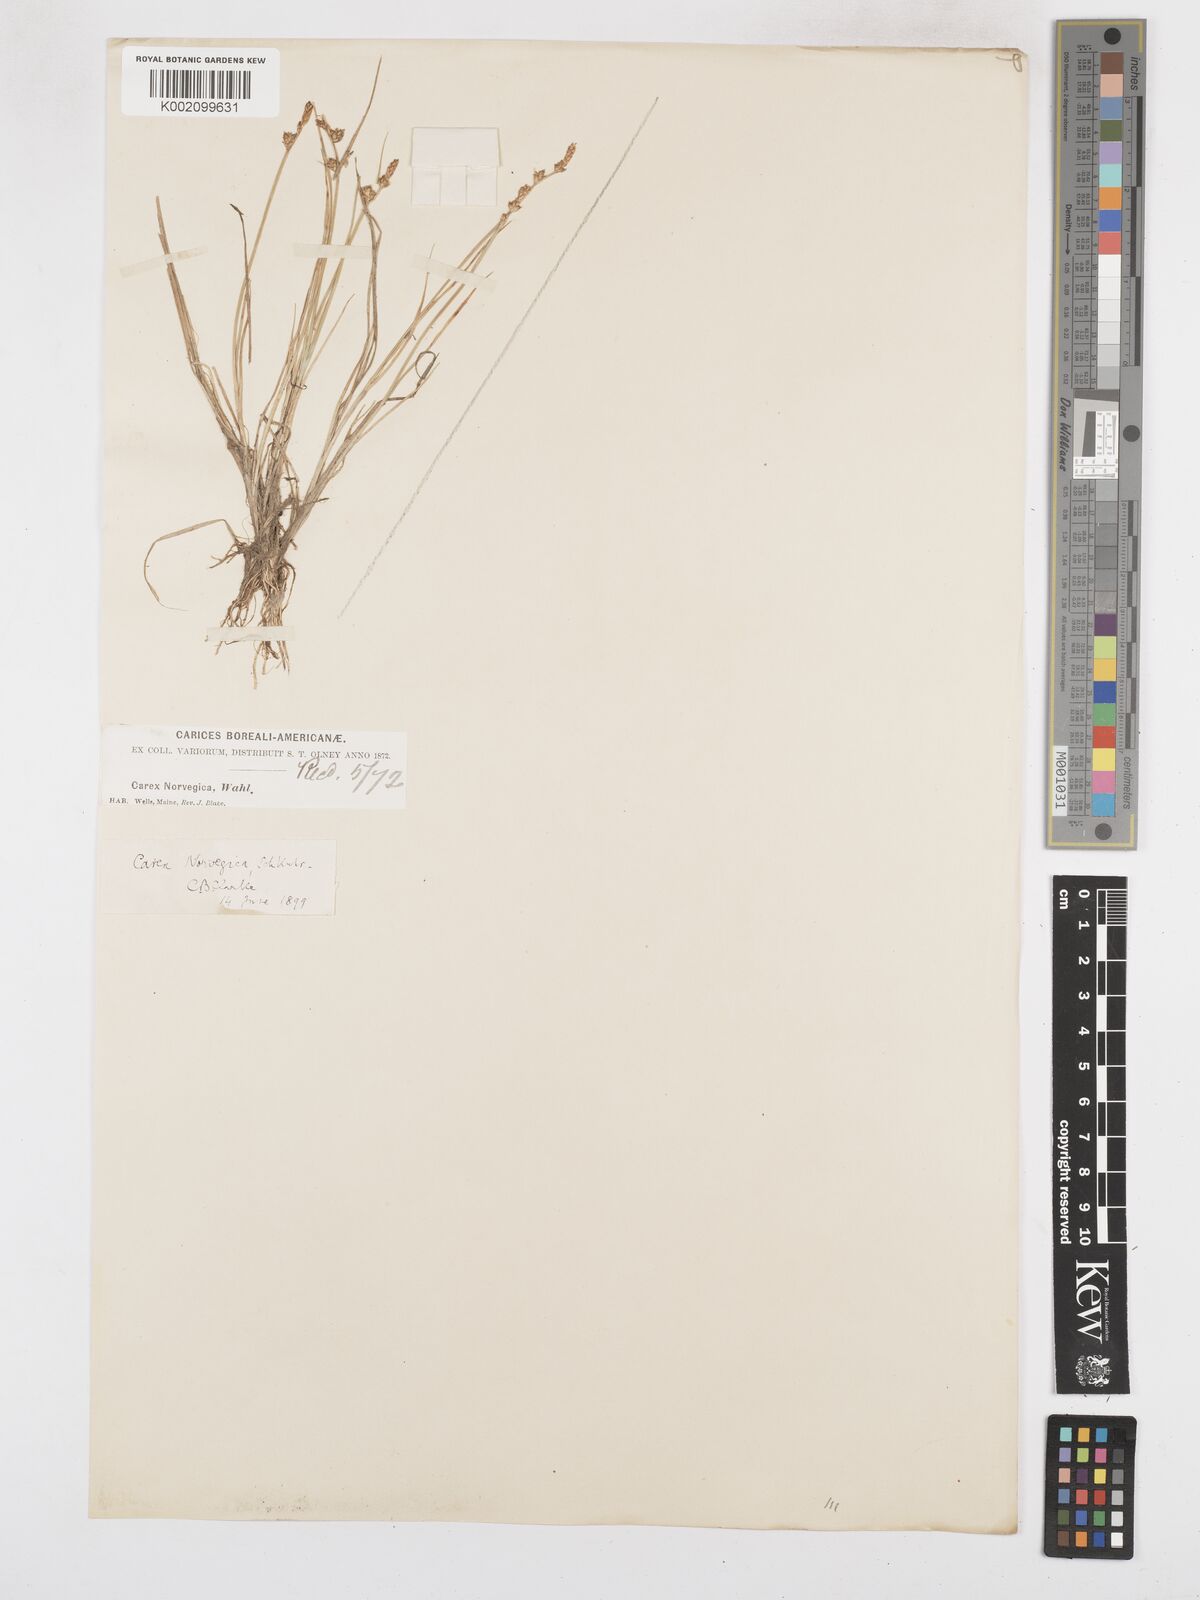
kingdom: Plantae
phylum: Tracheophyta
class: Liliopsida
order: Poales
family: Cyperaceae
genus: Carex
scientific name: Carex mackenziei
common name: Mackenzie's sedge
